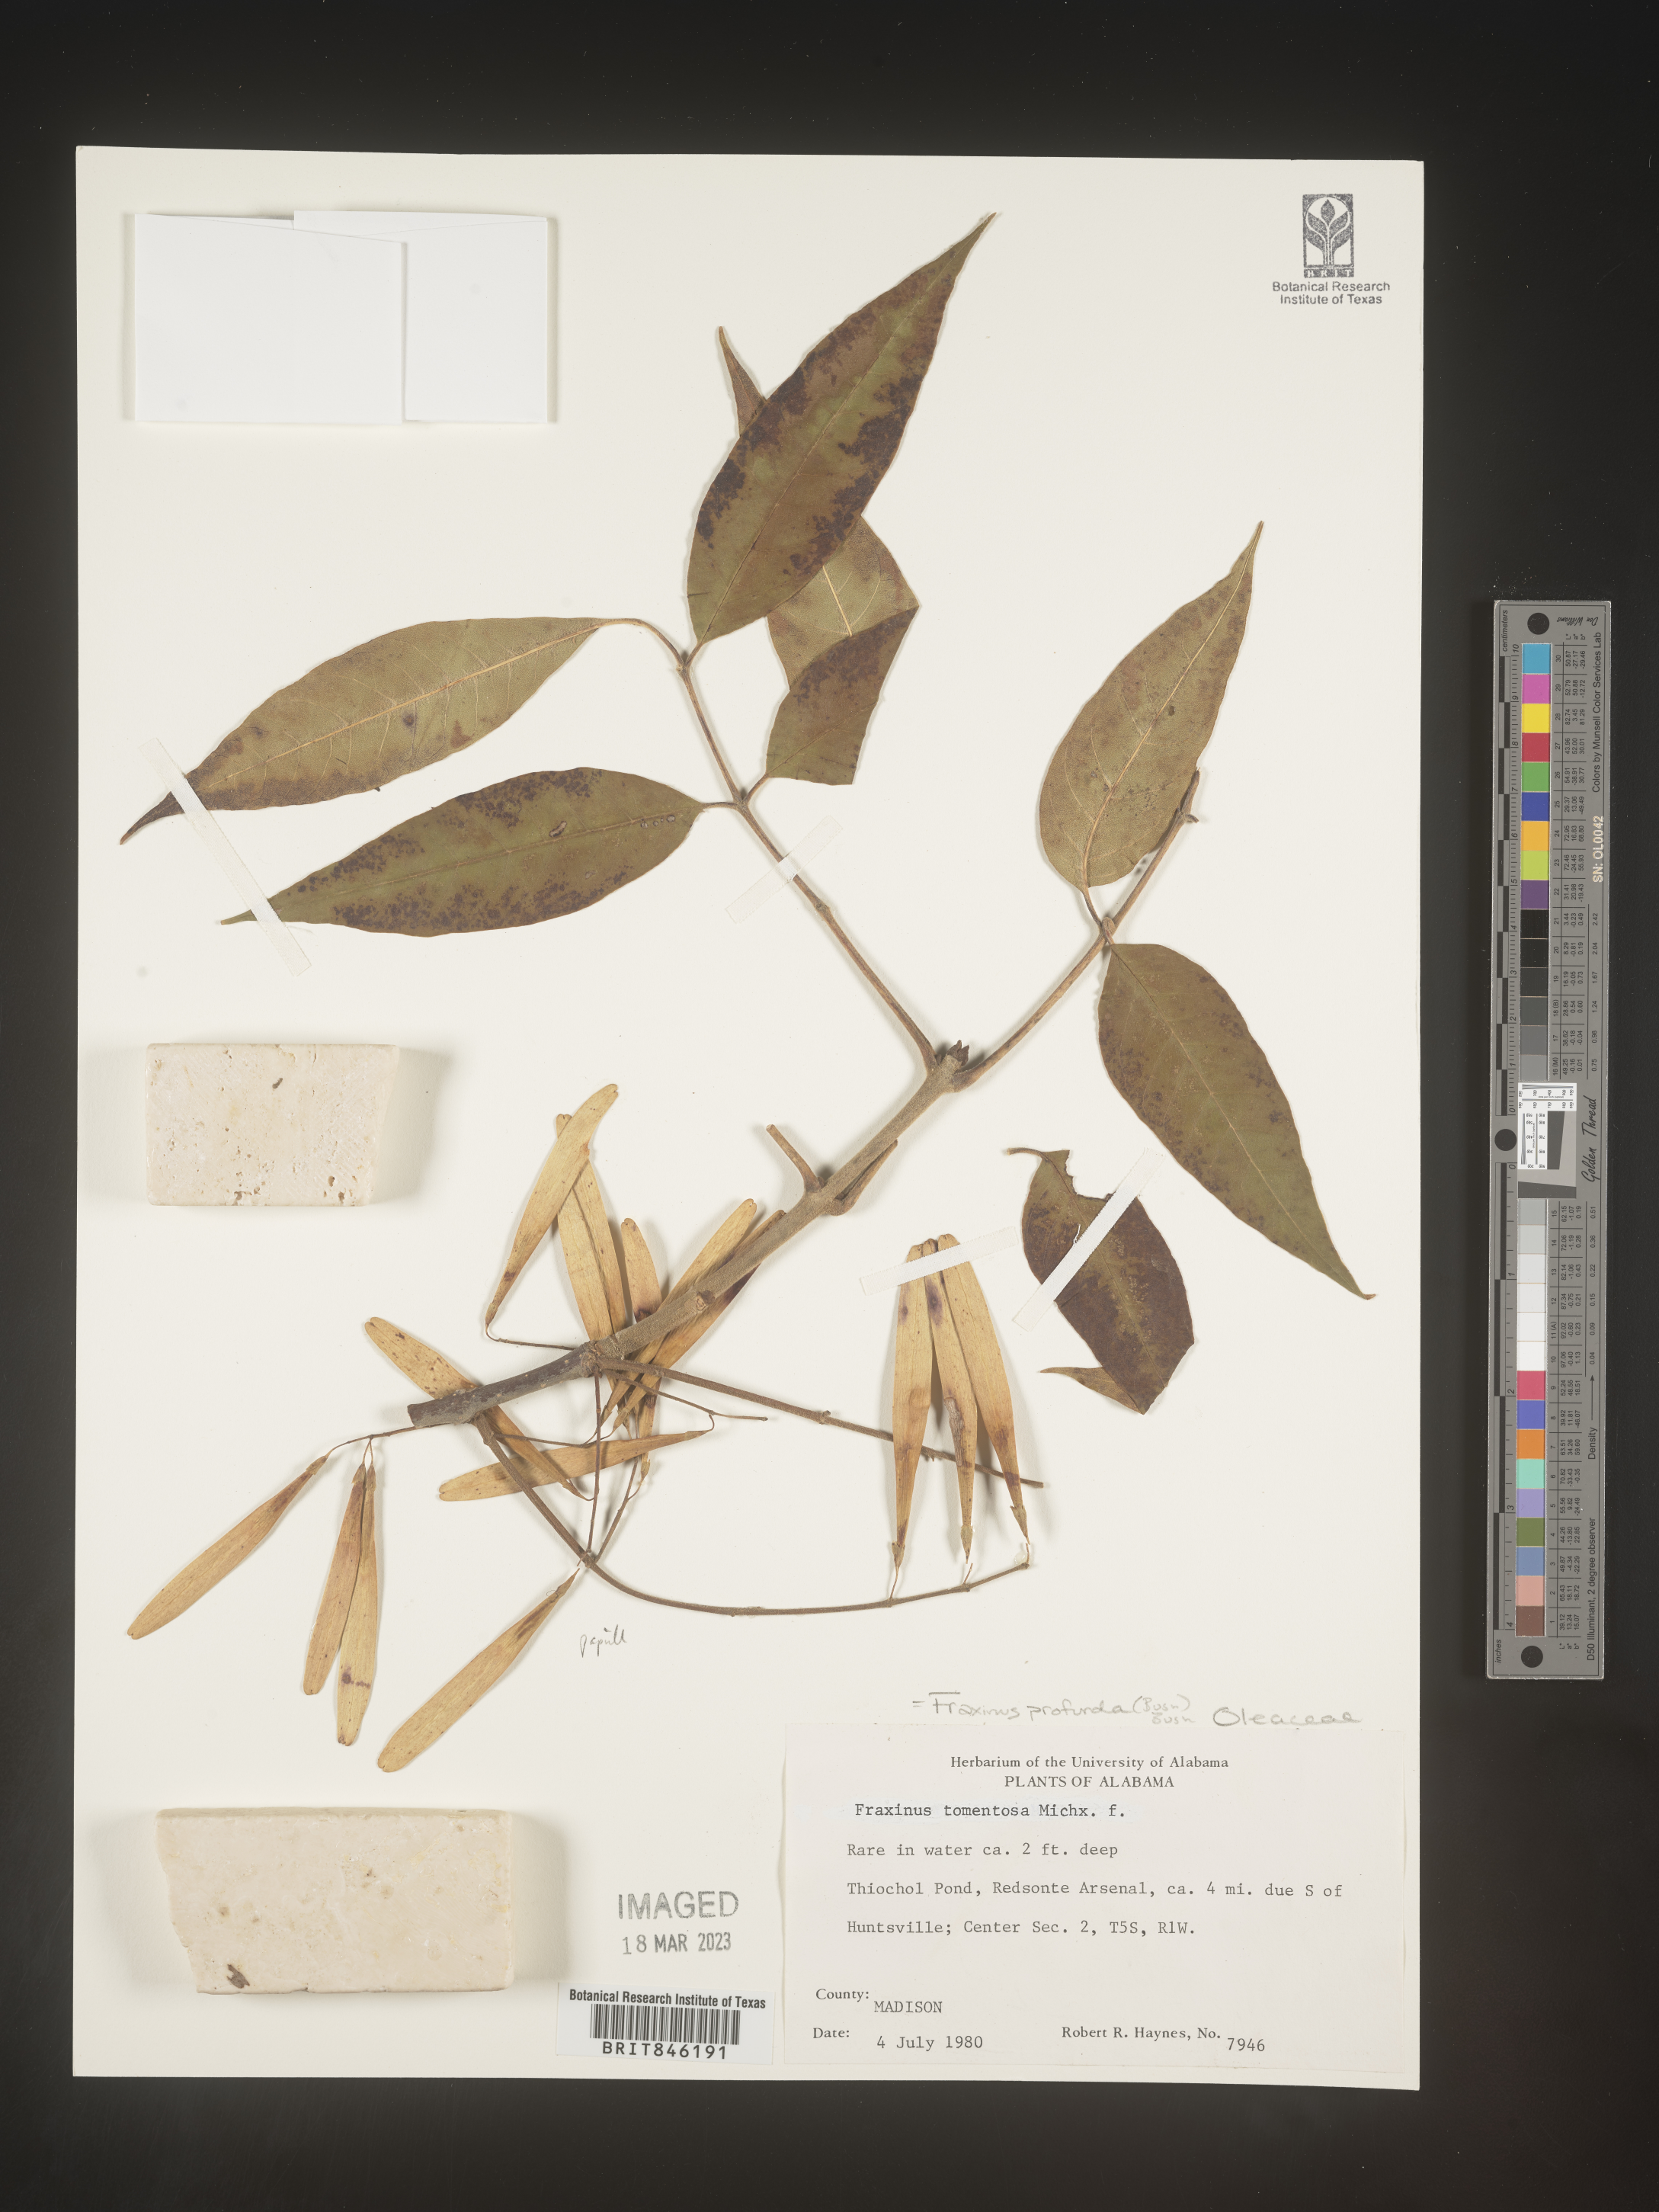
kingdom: Plantae
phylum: Tracheophyta
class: Magnoliopsida
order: Lamiales
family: Oleaceae
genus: Fraxinus
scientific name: Fraxinus profunda
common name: Pumpkin ash
